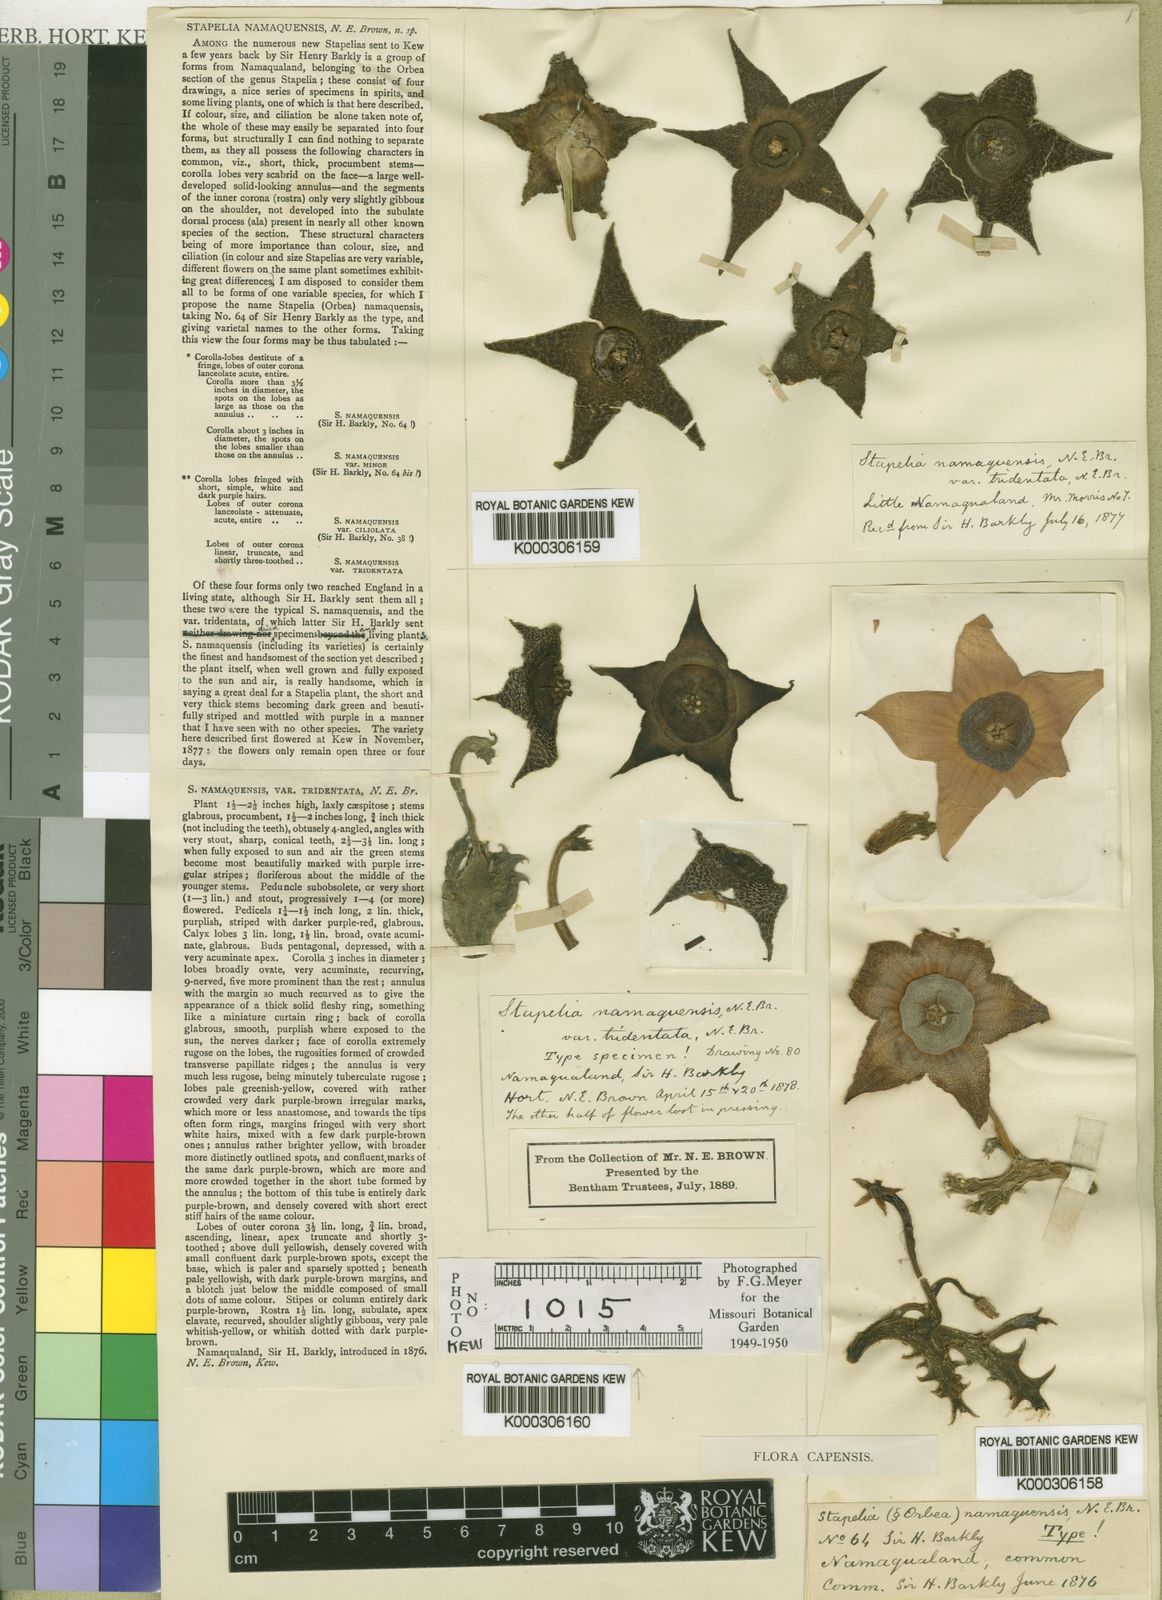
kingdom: Plantae
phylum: Tracheophyta
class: Magnoliopsida
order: Gentianales
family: Apocynaceae
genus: Ceropegia
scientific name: Ceropegia namaquana
